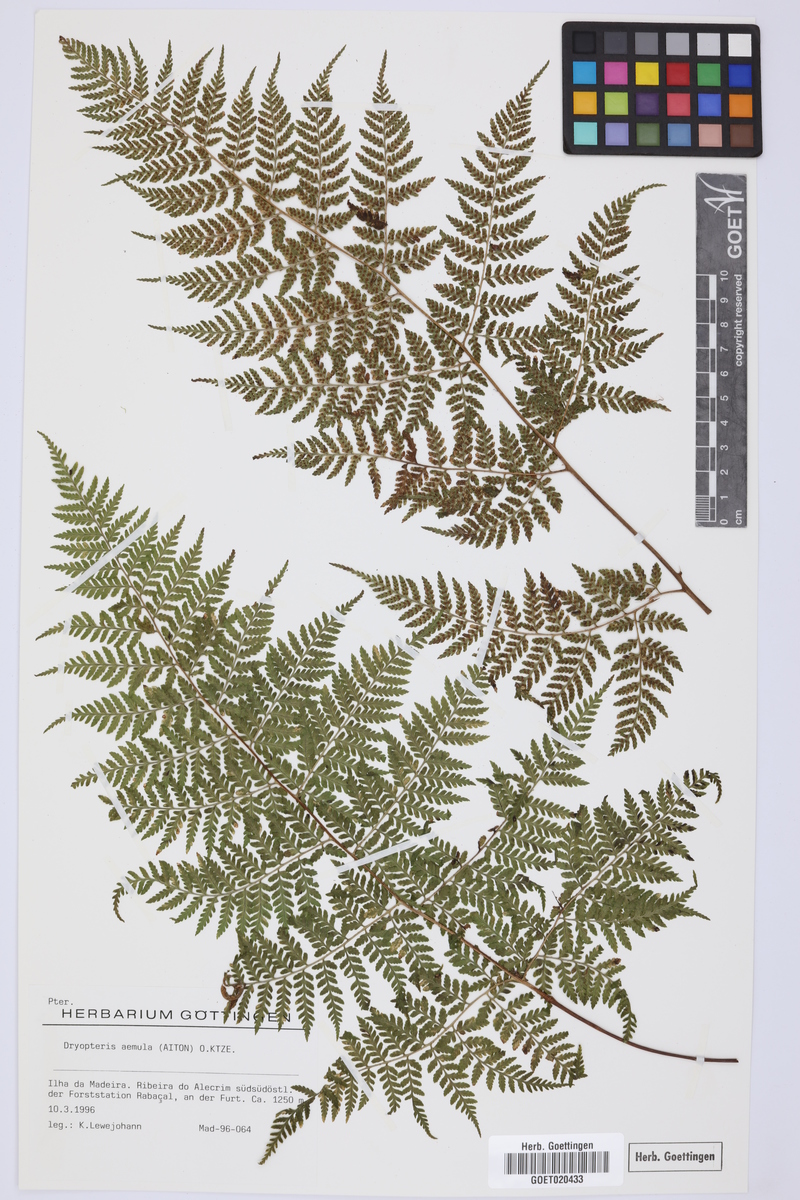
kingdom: Plantae
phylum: Tracheophyta
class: Polypodiopsida
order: Polypodiales
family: Dryopteridaceae
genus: Dryopteris
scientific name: Dryopteris aemula
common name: Hay-scented buckler-fern
